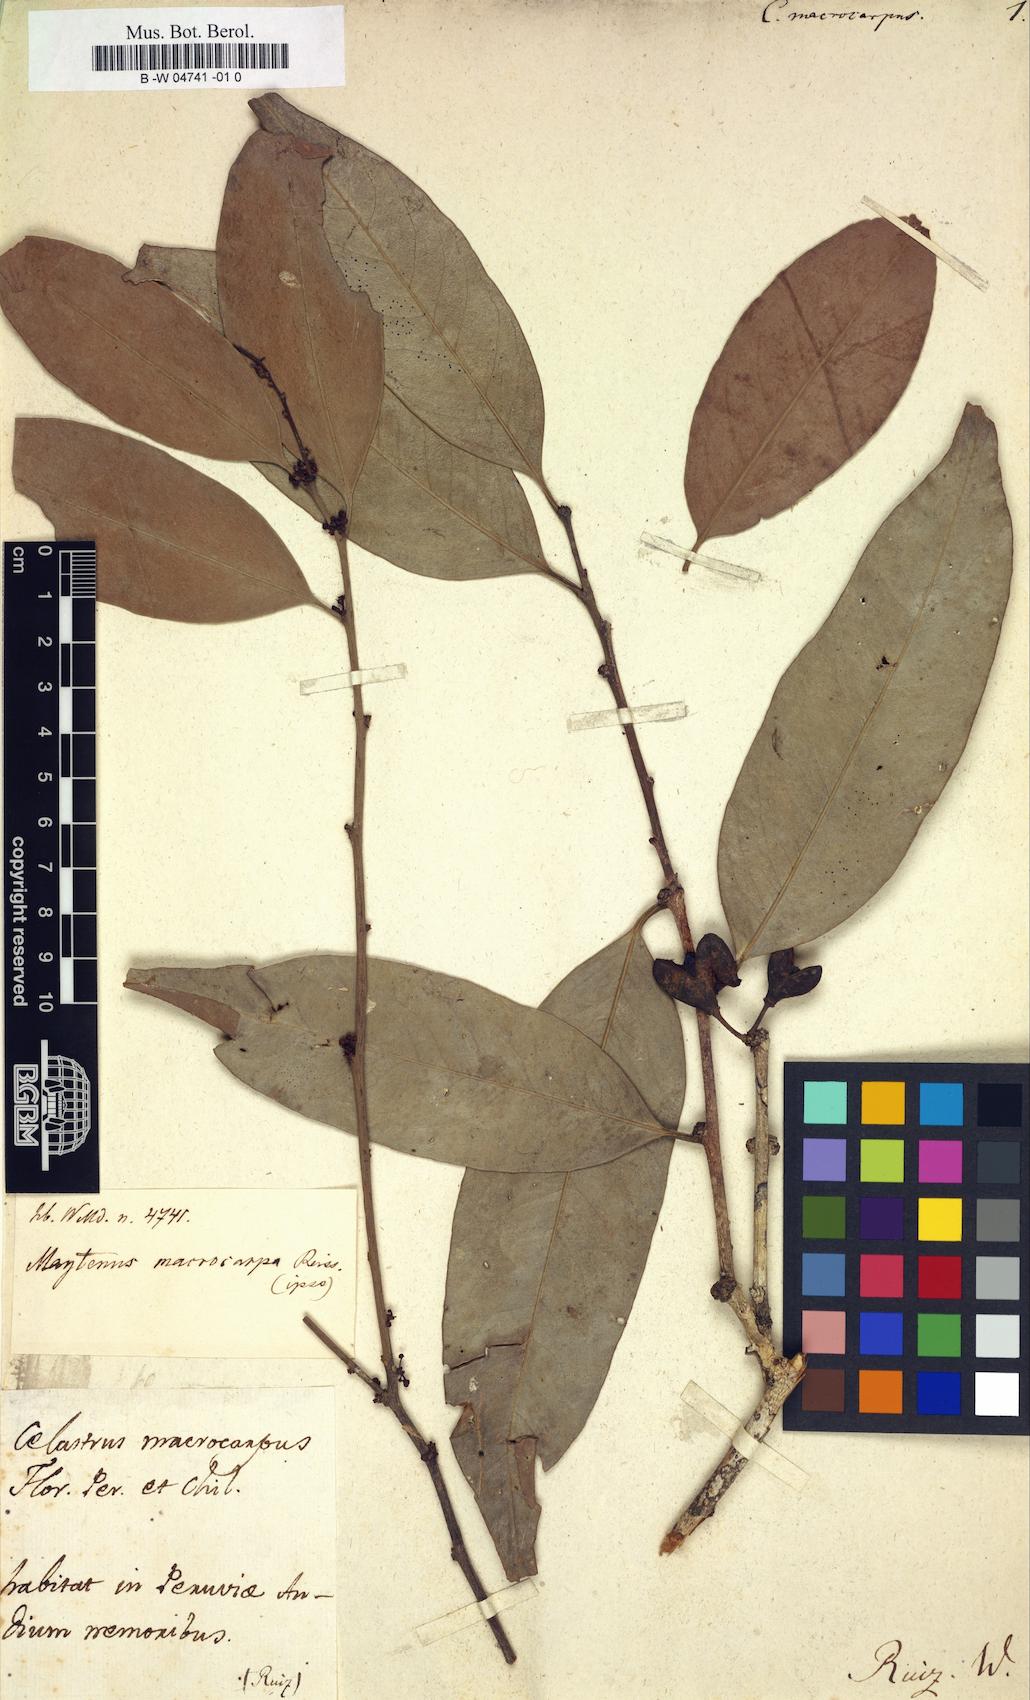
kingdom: Plantae
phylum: Tracheophyta
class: Magnoliopsida
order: Celastrales
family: Celastraceae
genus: Monteverdia
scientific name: Monteverdia macrocarpa
